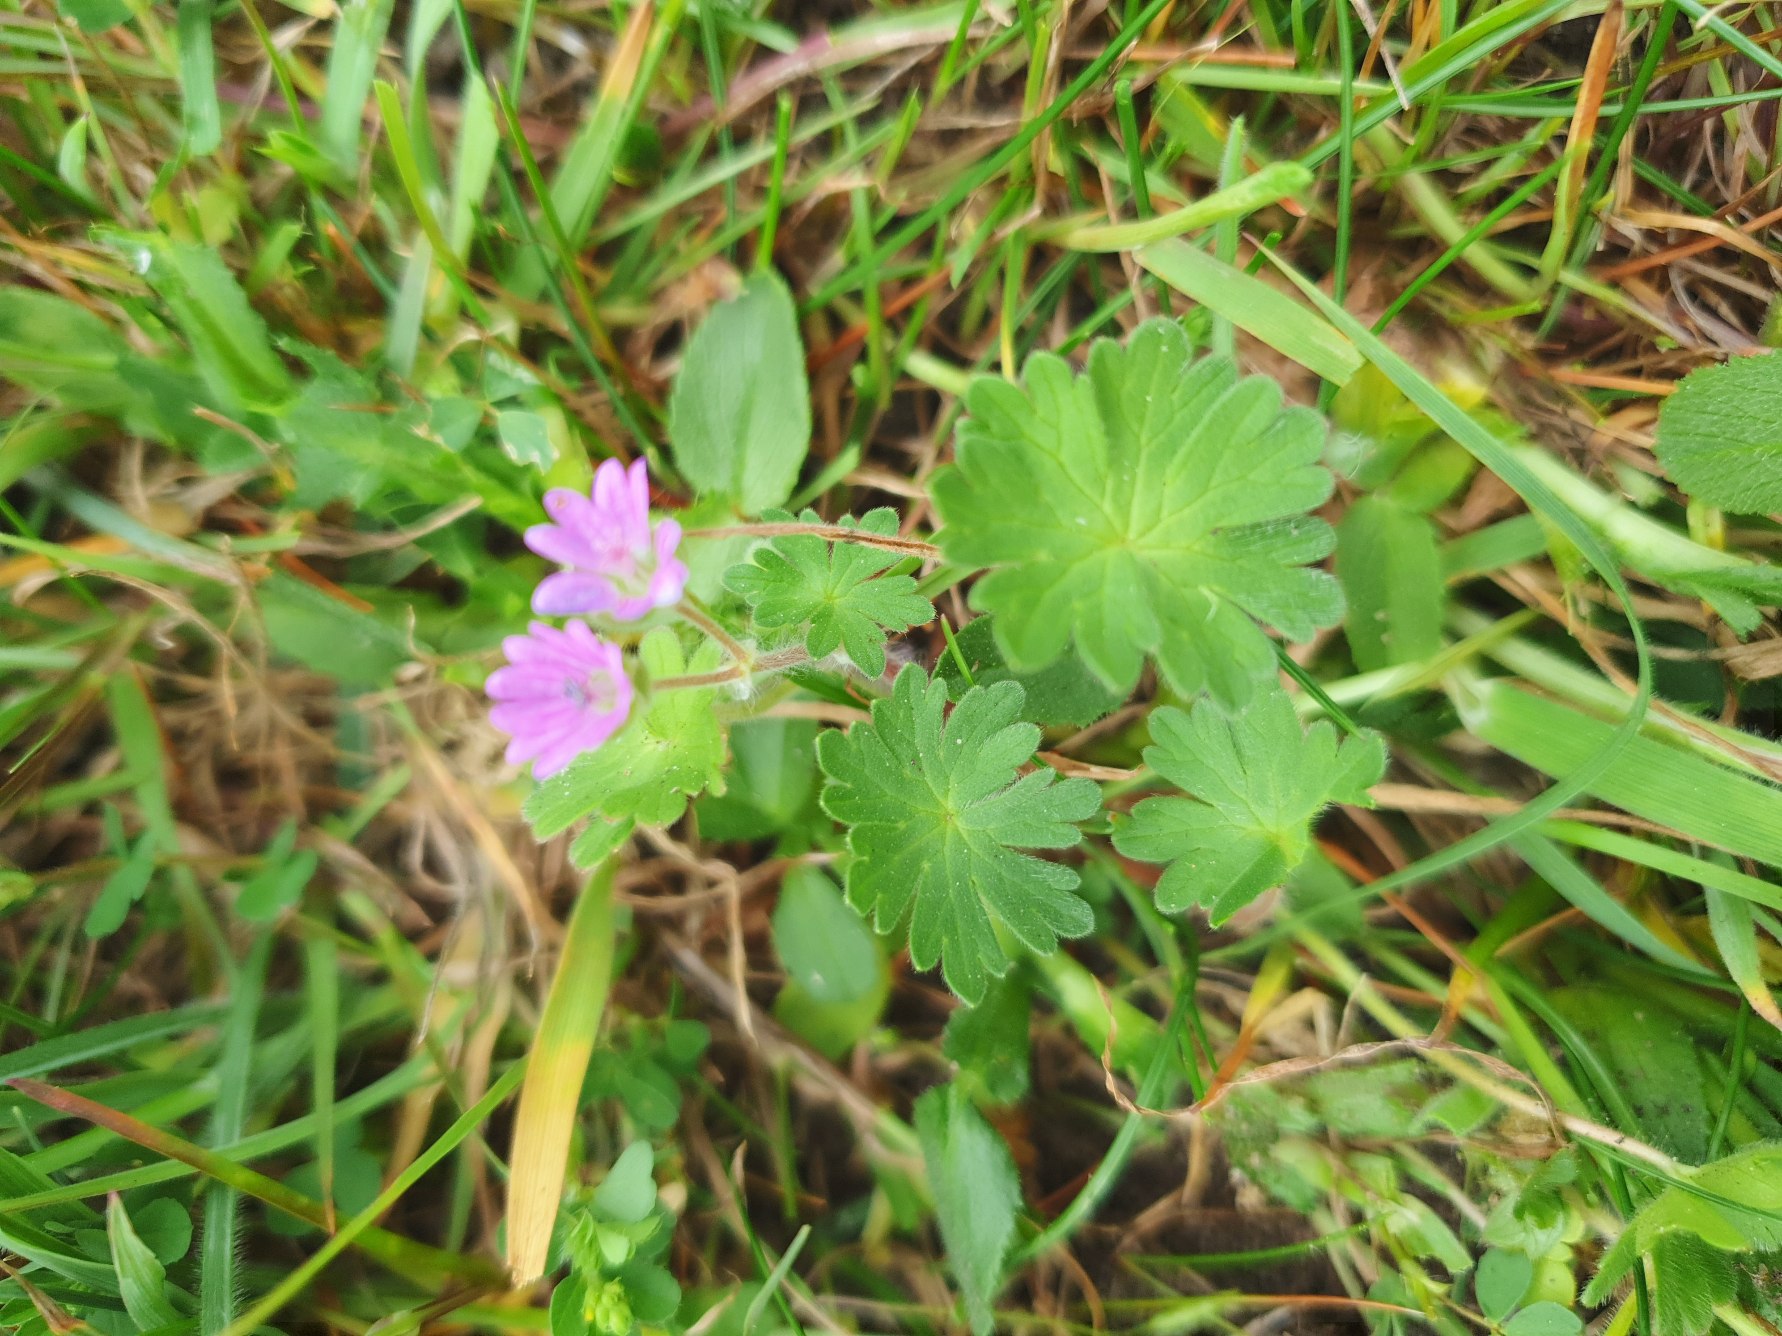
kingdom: Plantae
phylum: Tracheophyta
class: Magnoliopsida
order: Geraniales
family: Geraniaceae
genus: Geranium
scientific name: Geranium molle
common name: Blød storkenæb
